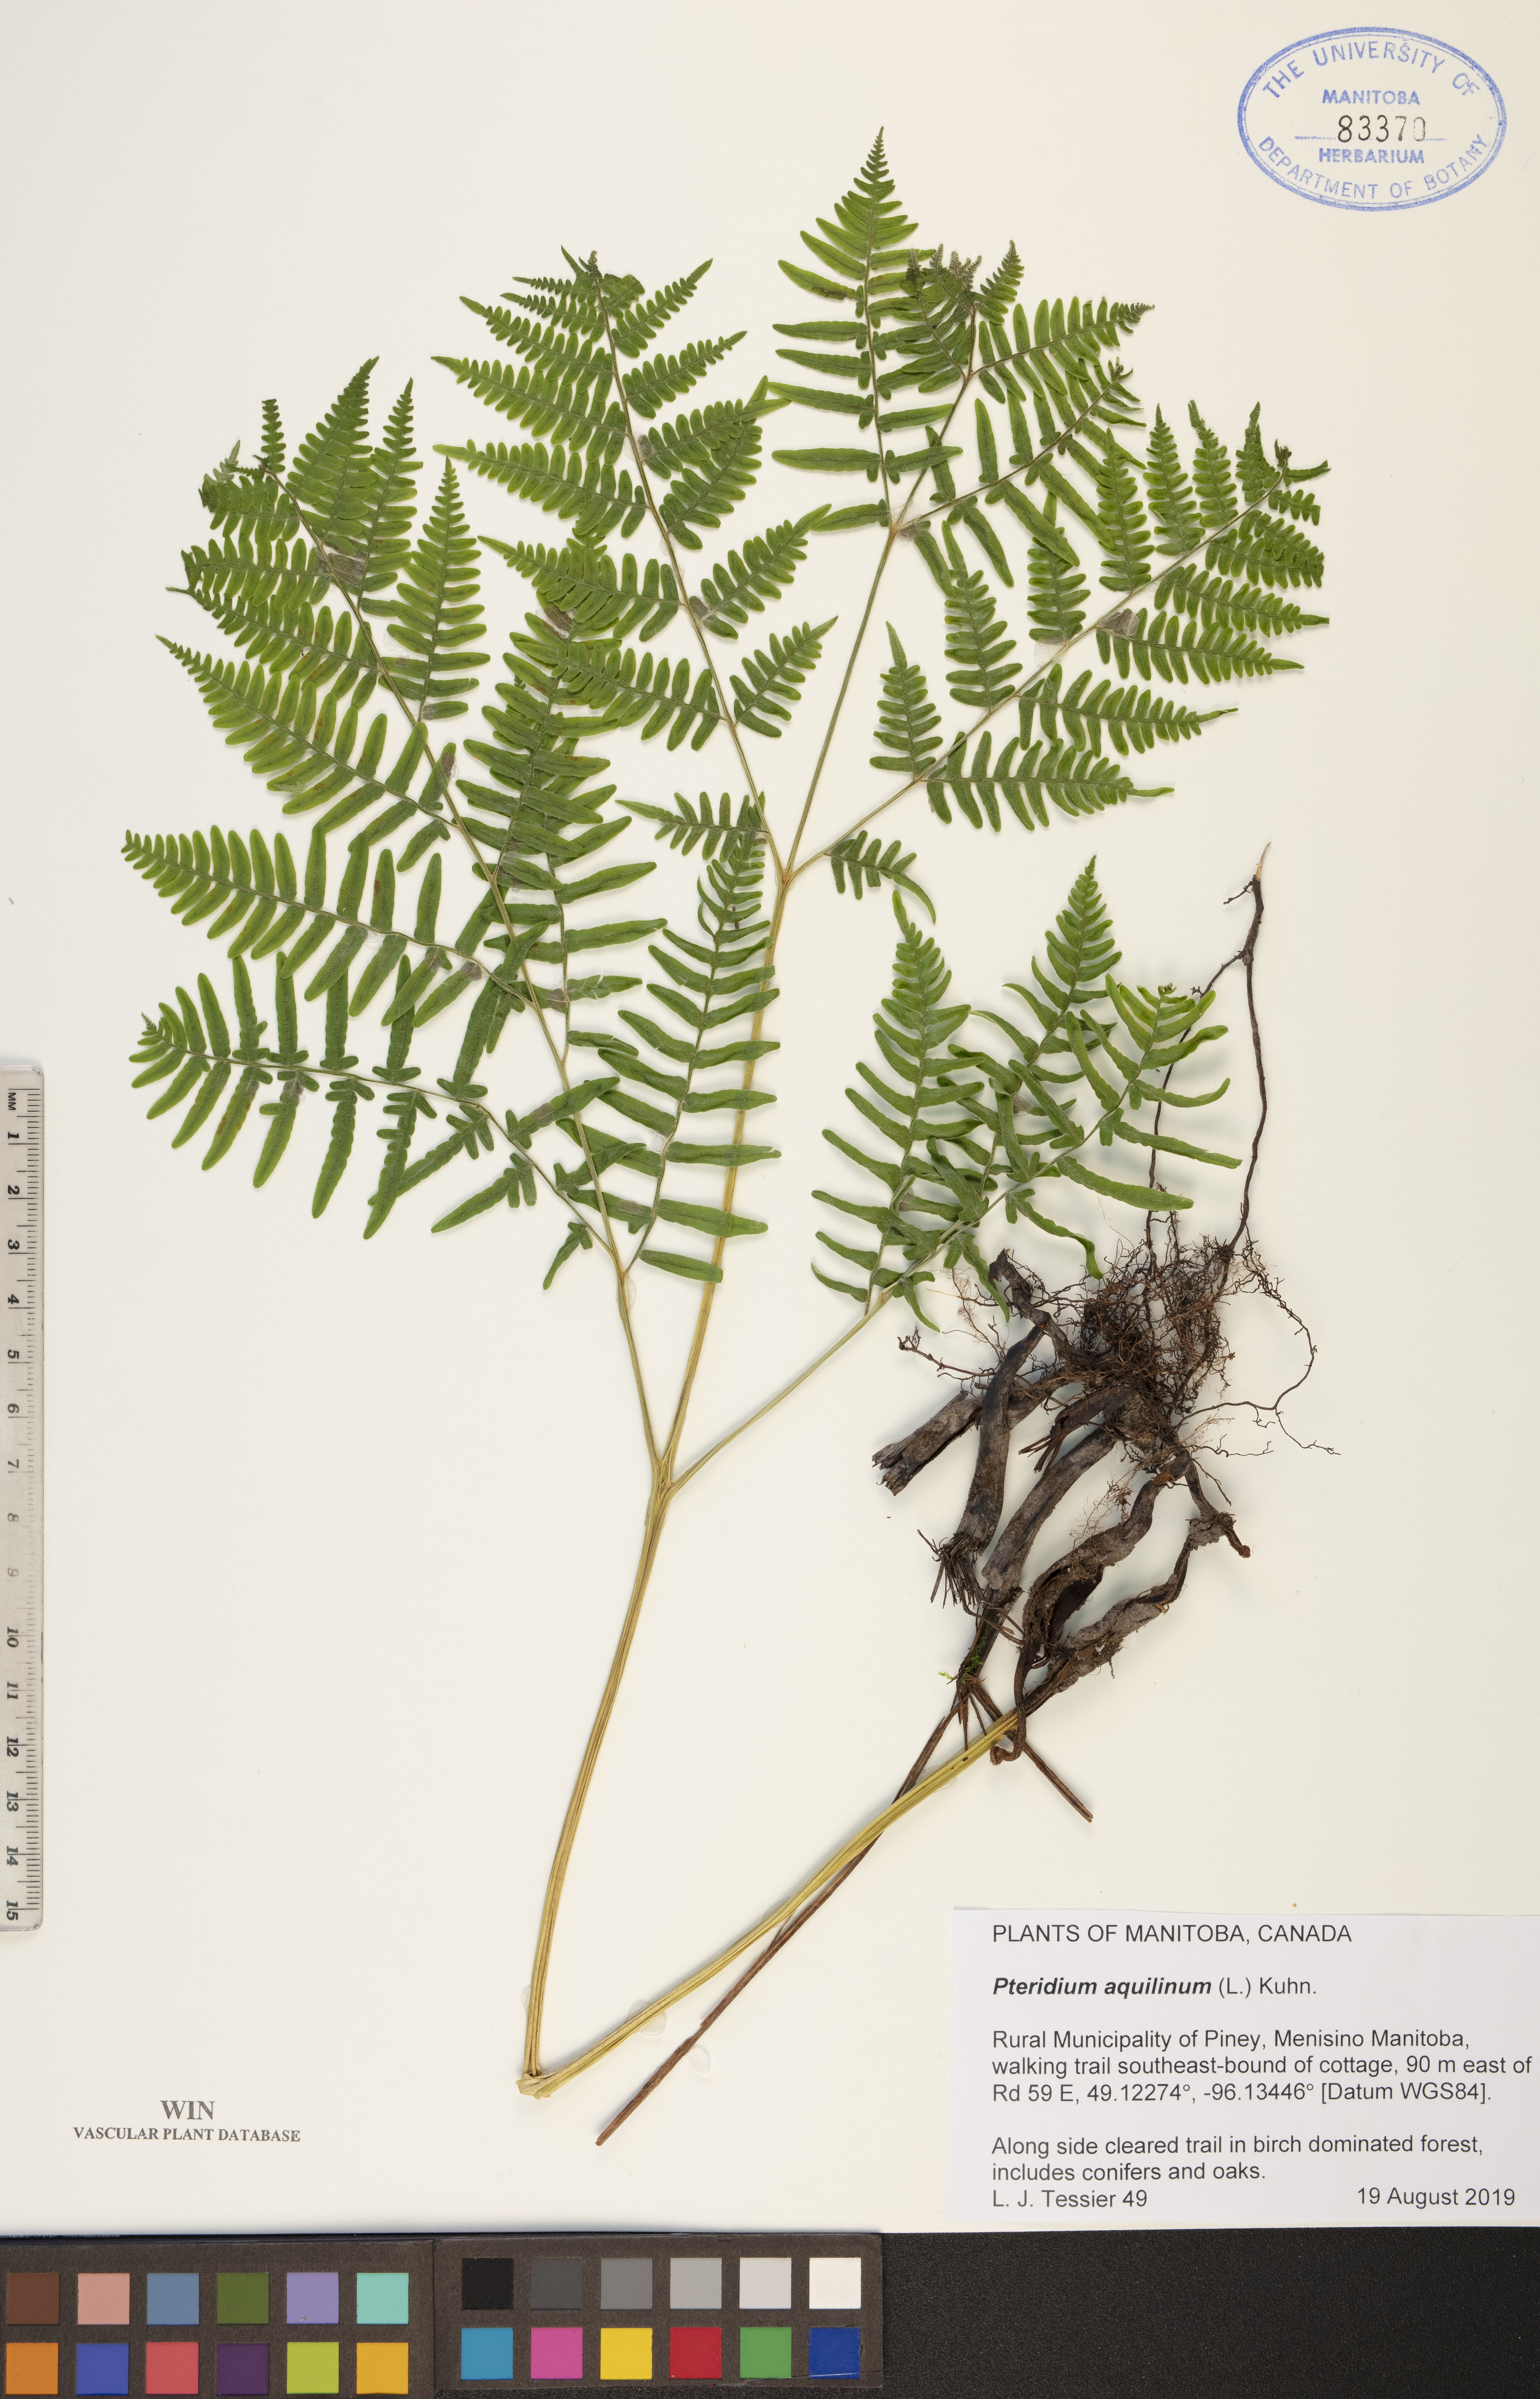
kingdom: Plantae
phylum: Tracheophyta
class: Polypodiopsida
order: Polypodiales
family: Dennstaedtiaceae
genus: Pteridium
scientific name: Pteridium aquilinum
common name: Bracken
